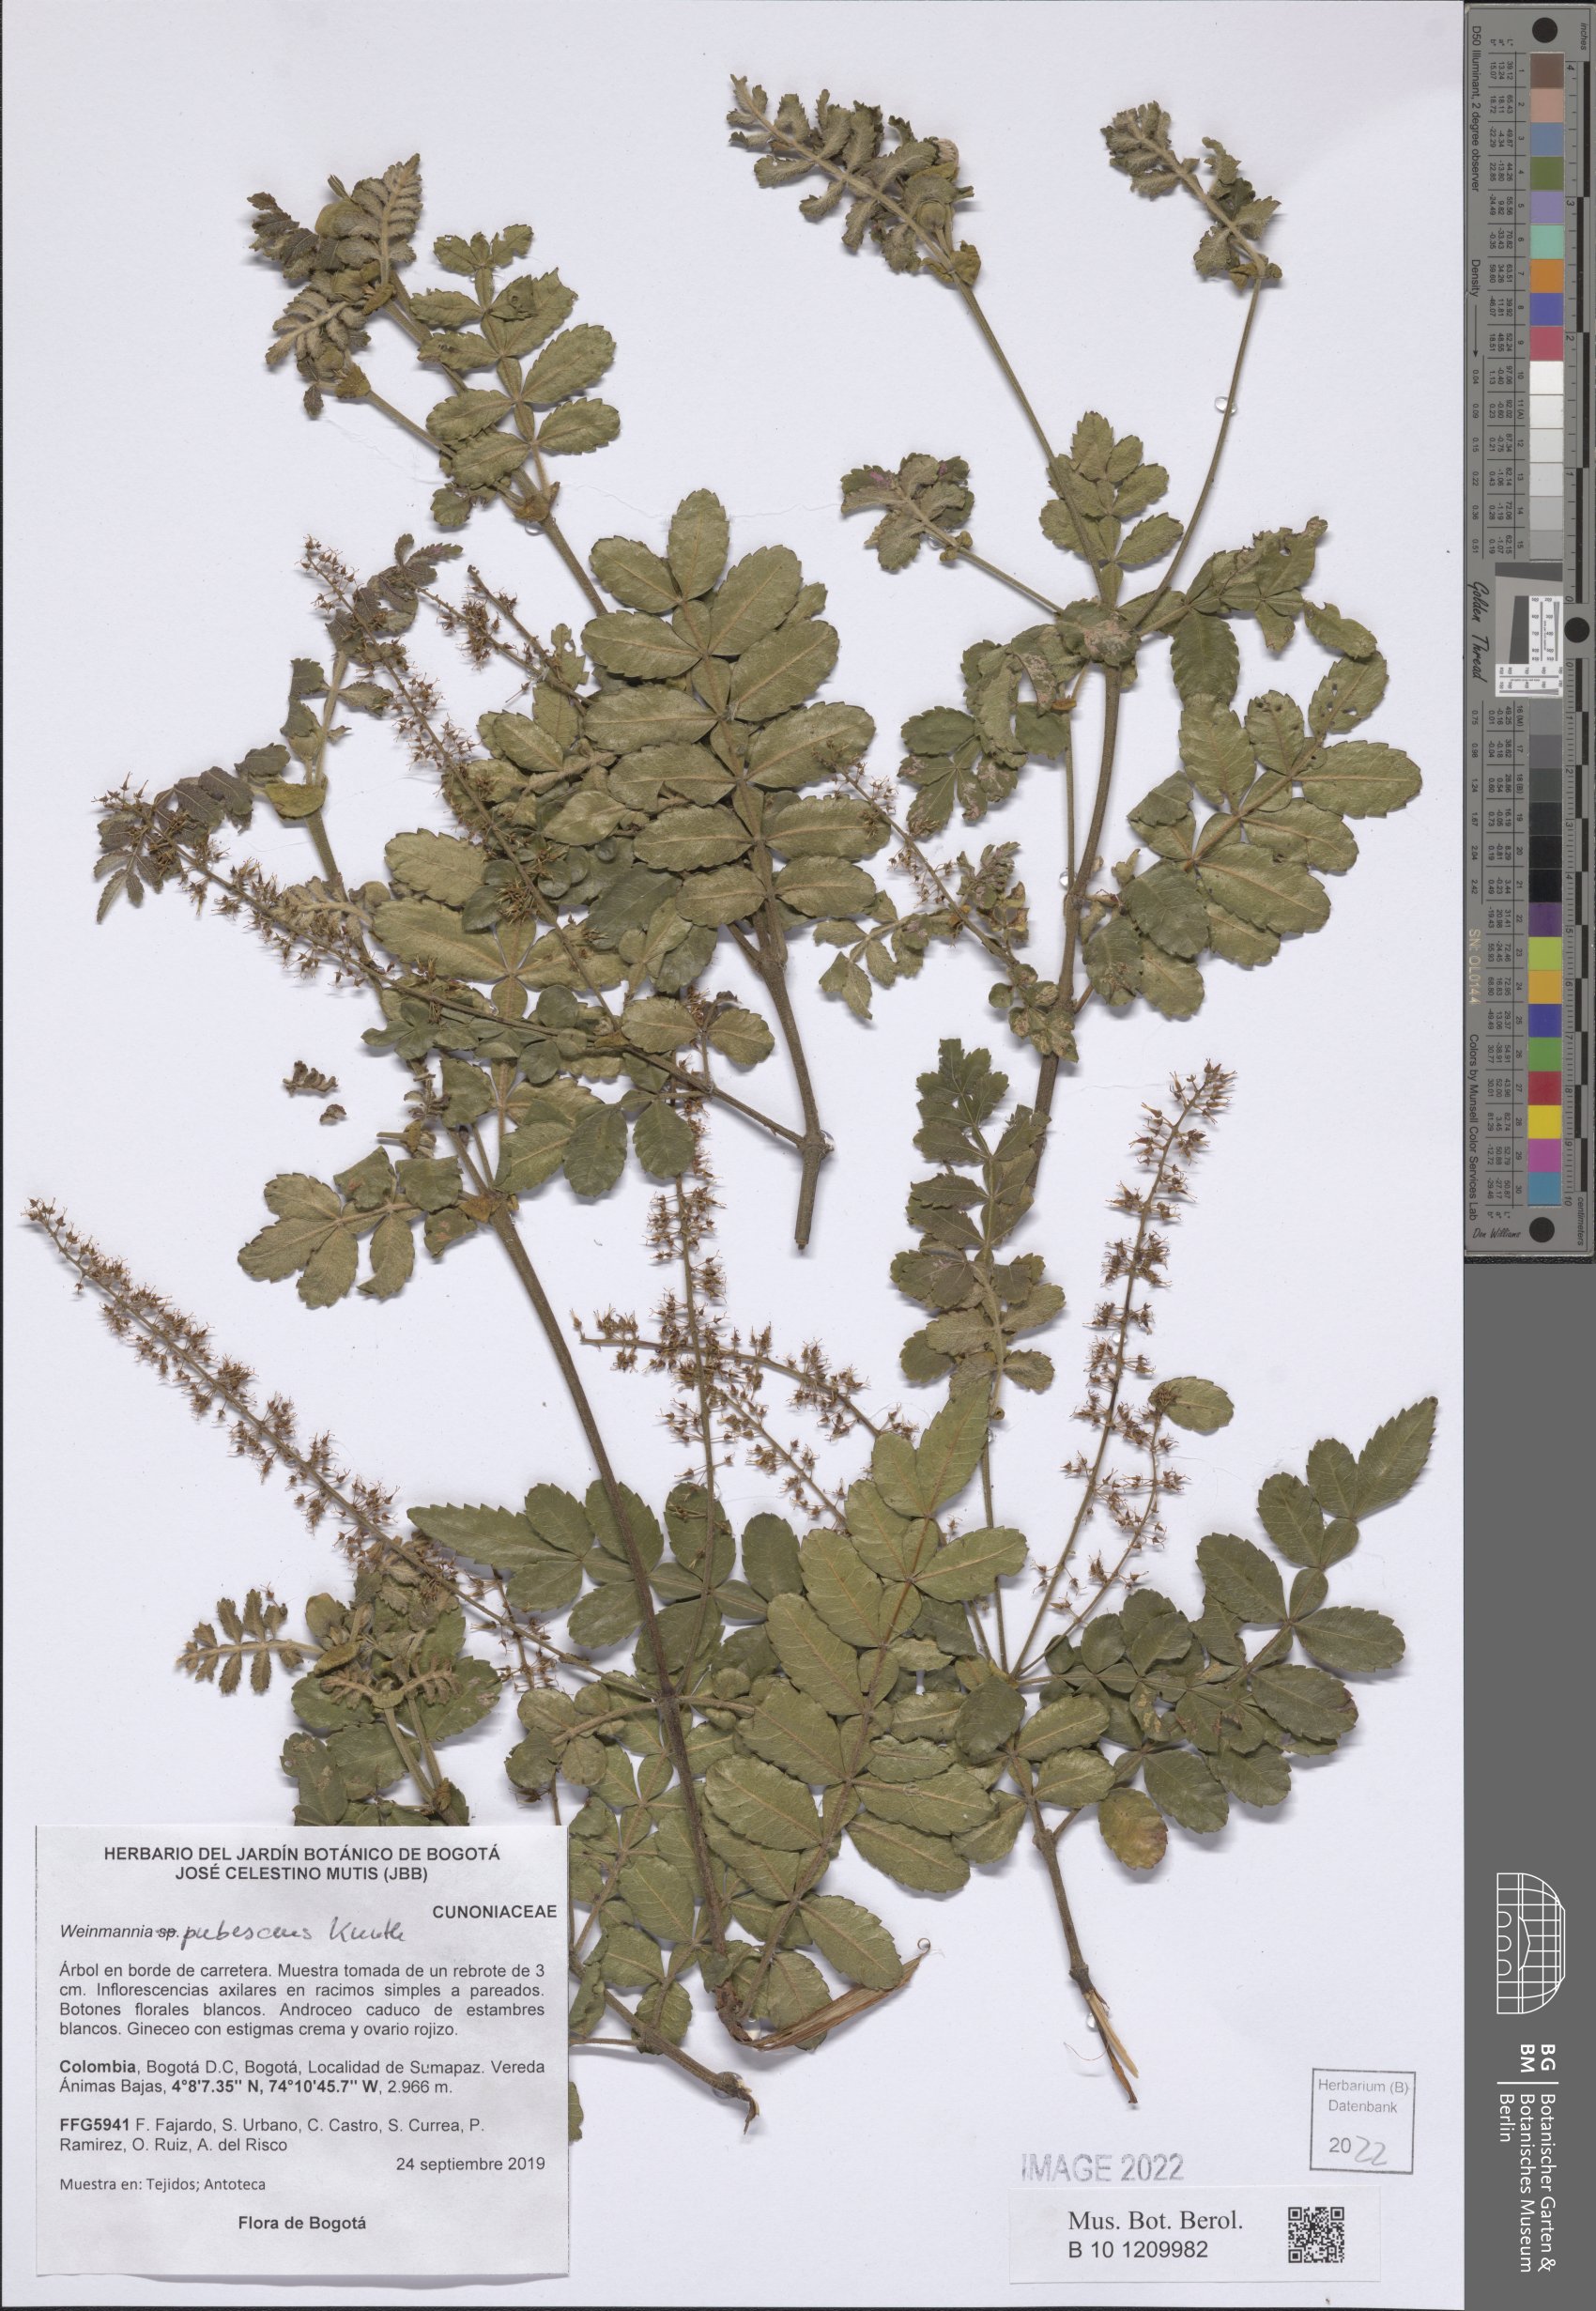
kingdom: Plantae
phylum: Tracheophyta
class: Magnoliopsida
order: Oxalidales
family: Cunoniaceae
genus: Weinmannia
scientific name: Weinmannia pubescens
